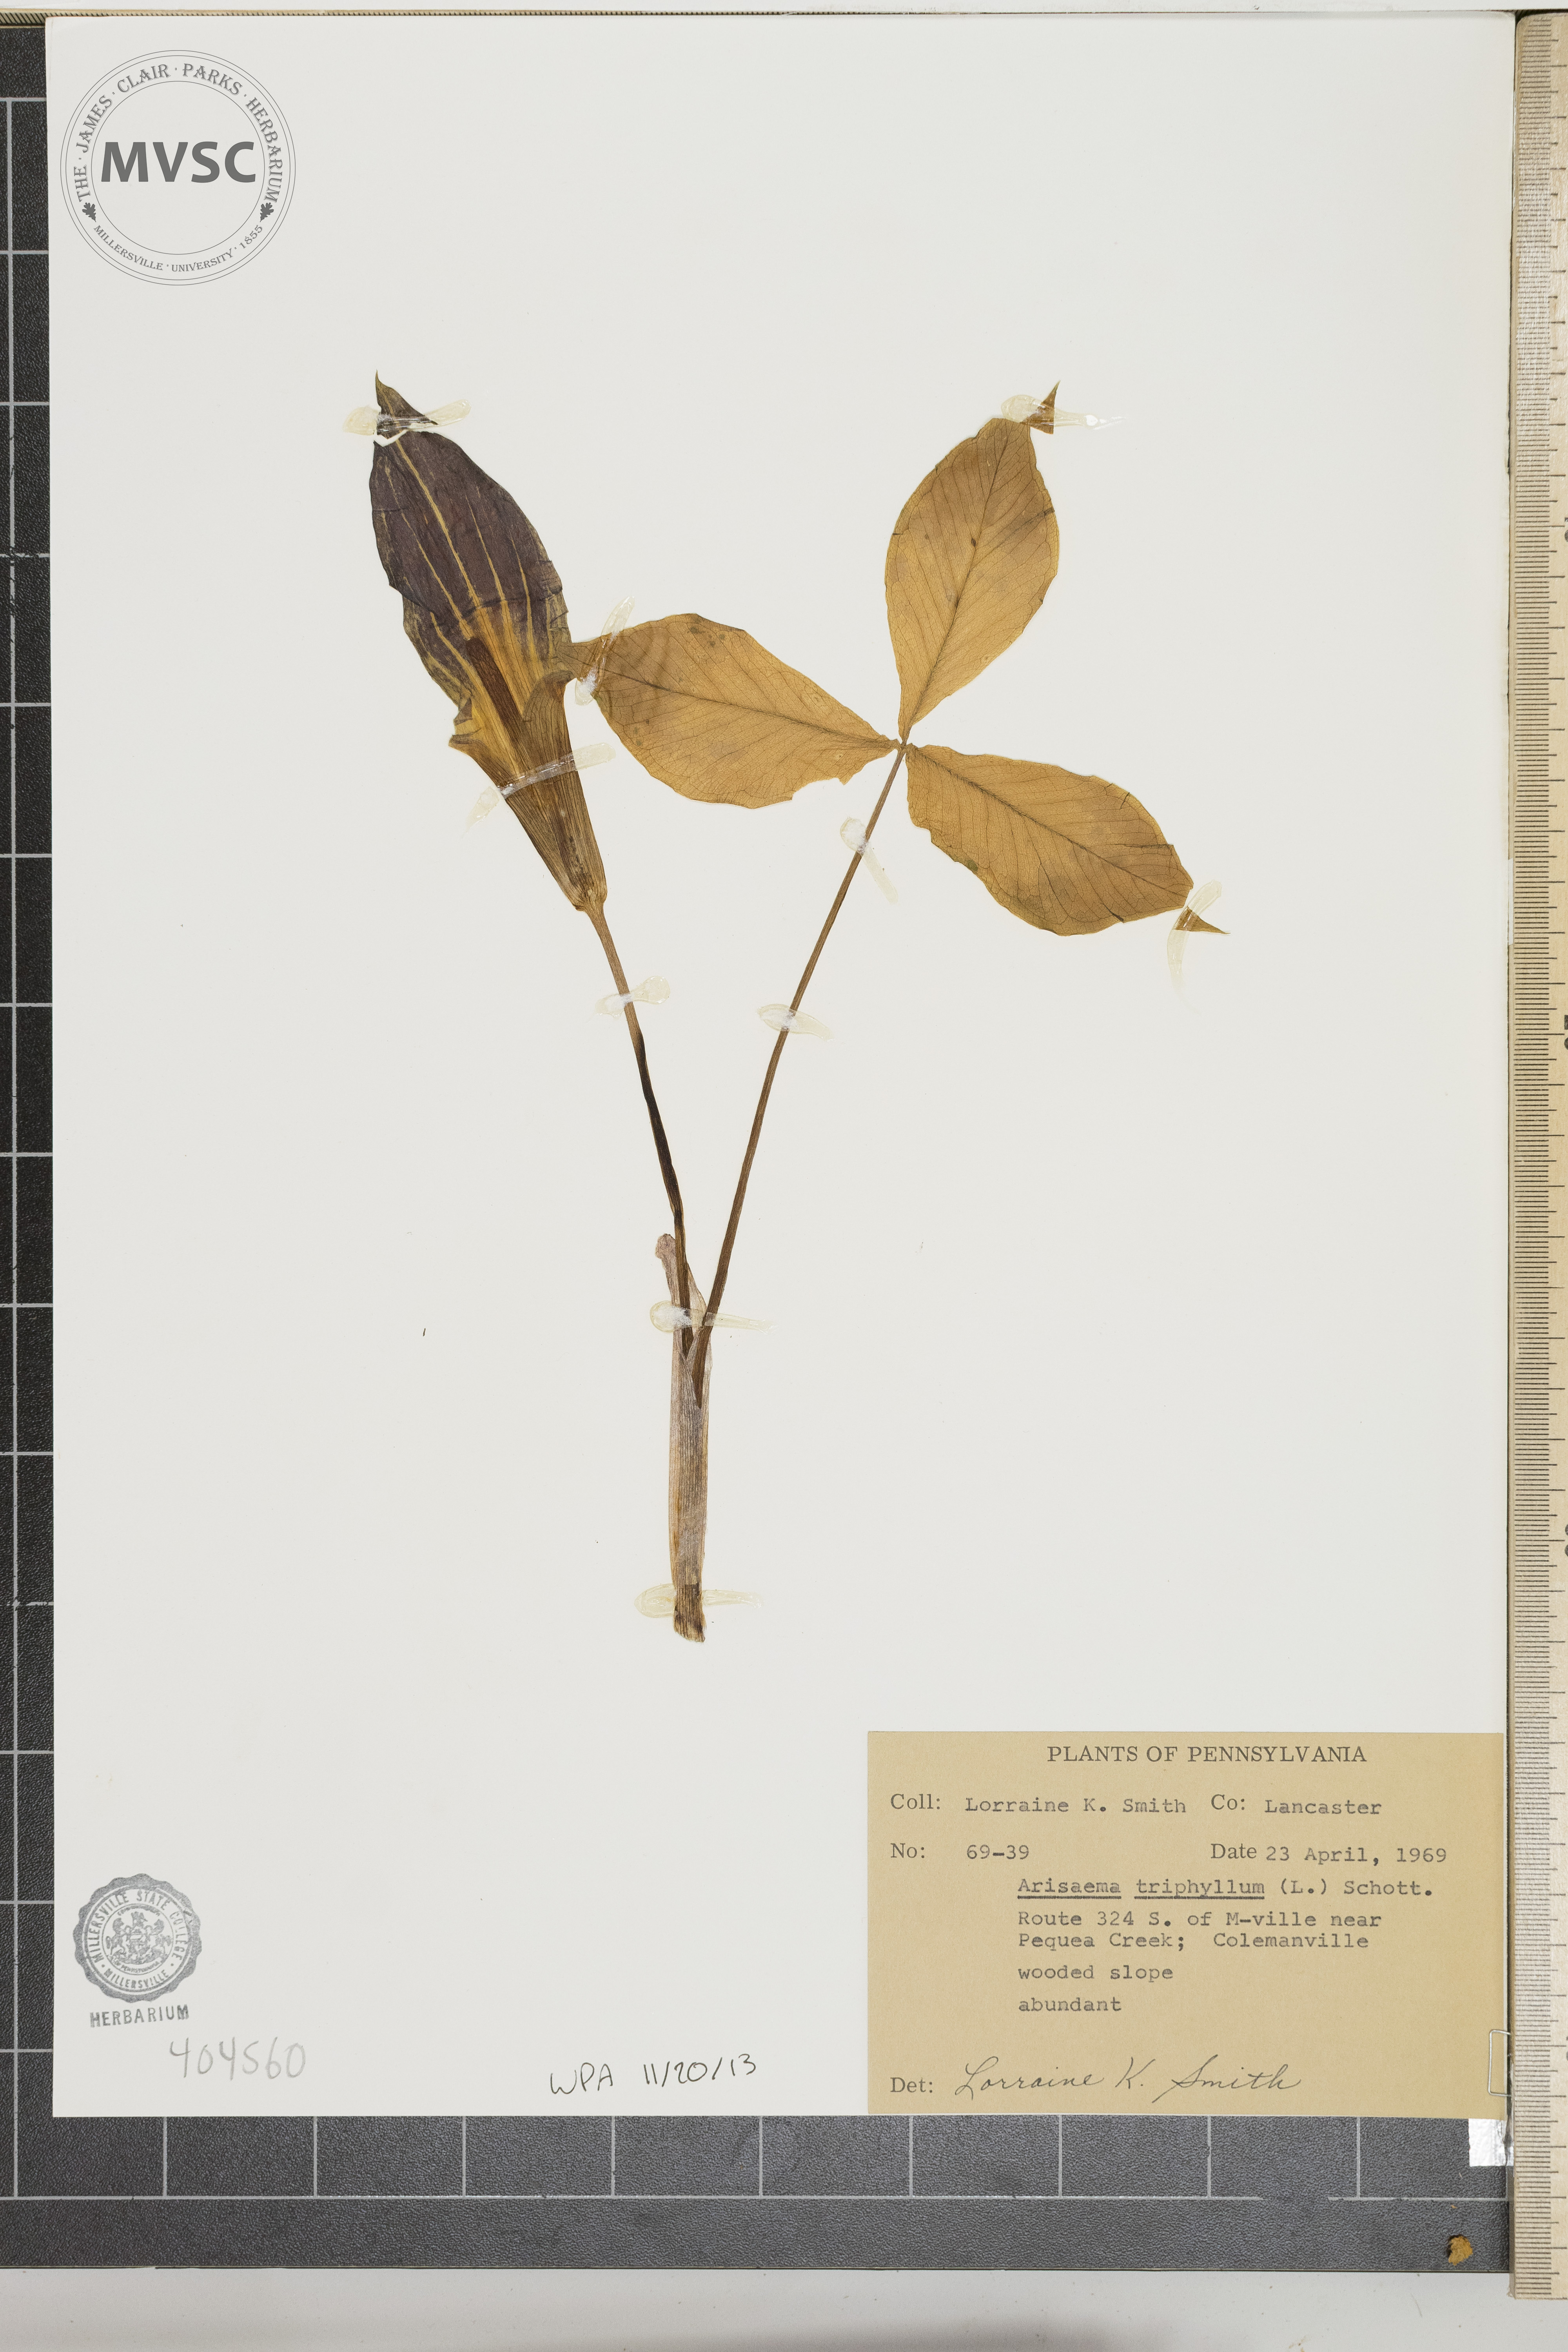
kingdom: Plantae
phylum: Tracheophyta
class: Liliopsida
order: Alismatales
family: Araceae
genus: Arisaema
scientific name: Arisaema triphyllum
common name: Jack-in-the-pulpit
